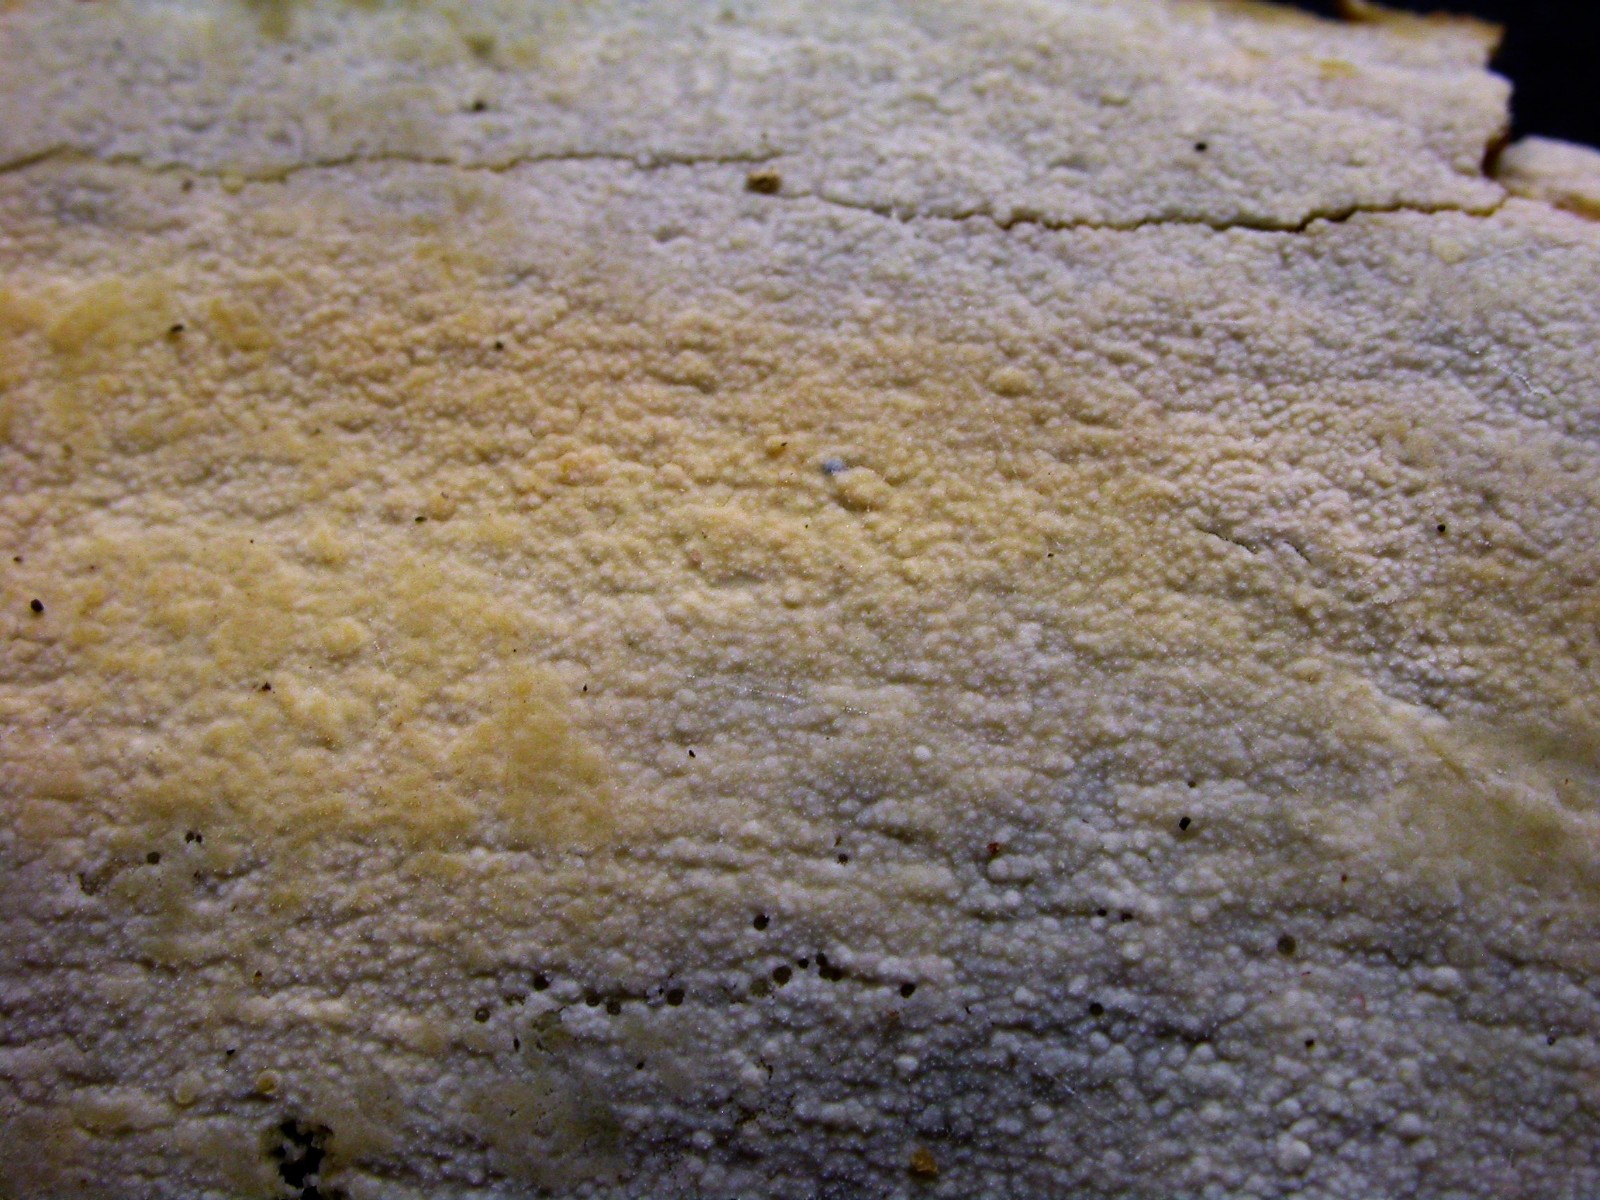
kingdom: Fungi
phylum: Basidiomycota
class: Agaricomycetes
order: Polyporales
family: Hyphodermataceae
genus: Hyphoderma
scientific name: Hyphoderma setigerum
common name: håret kalkskind
